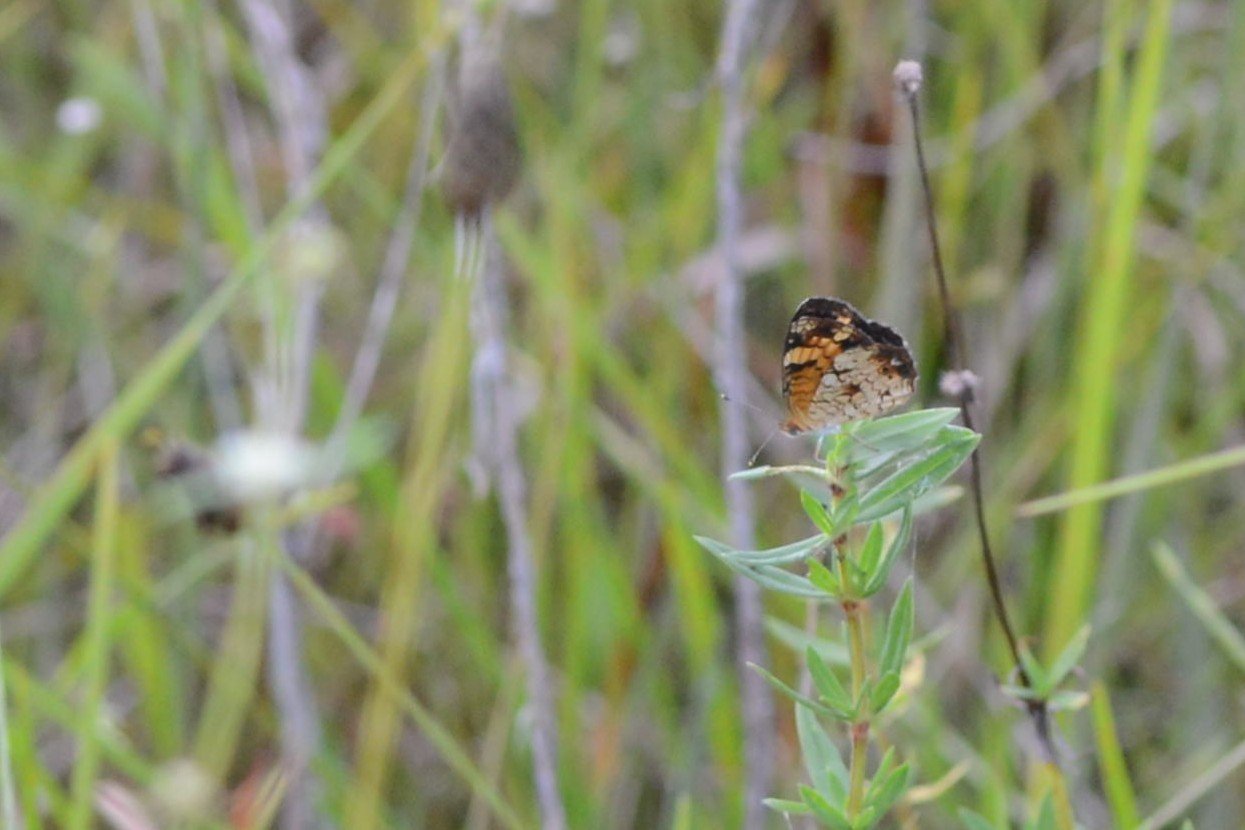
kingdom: Animalia
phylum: Arthropoda
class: Insecta
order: Lepidoptera
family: Nymphalidae
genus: Phyciodes
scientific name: Phyciodes phaon
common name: Phaon Crescent
